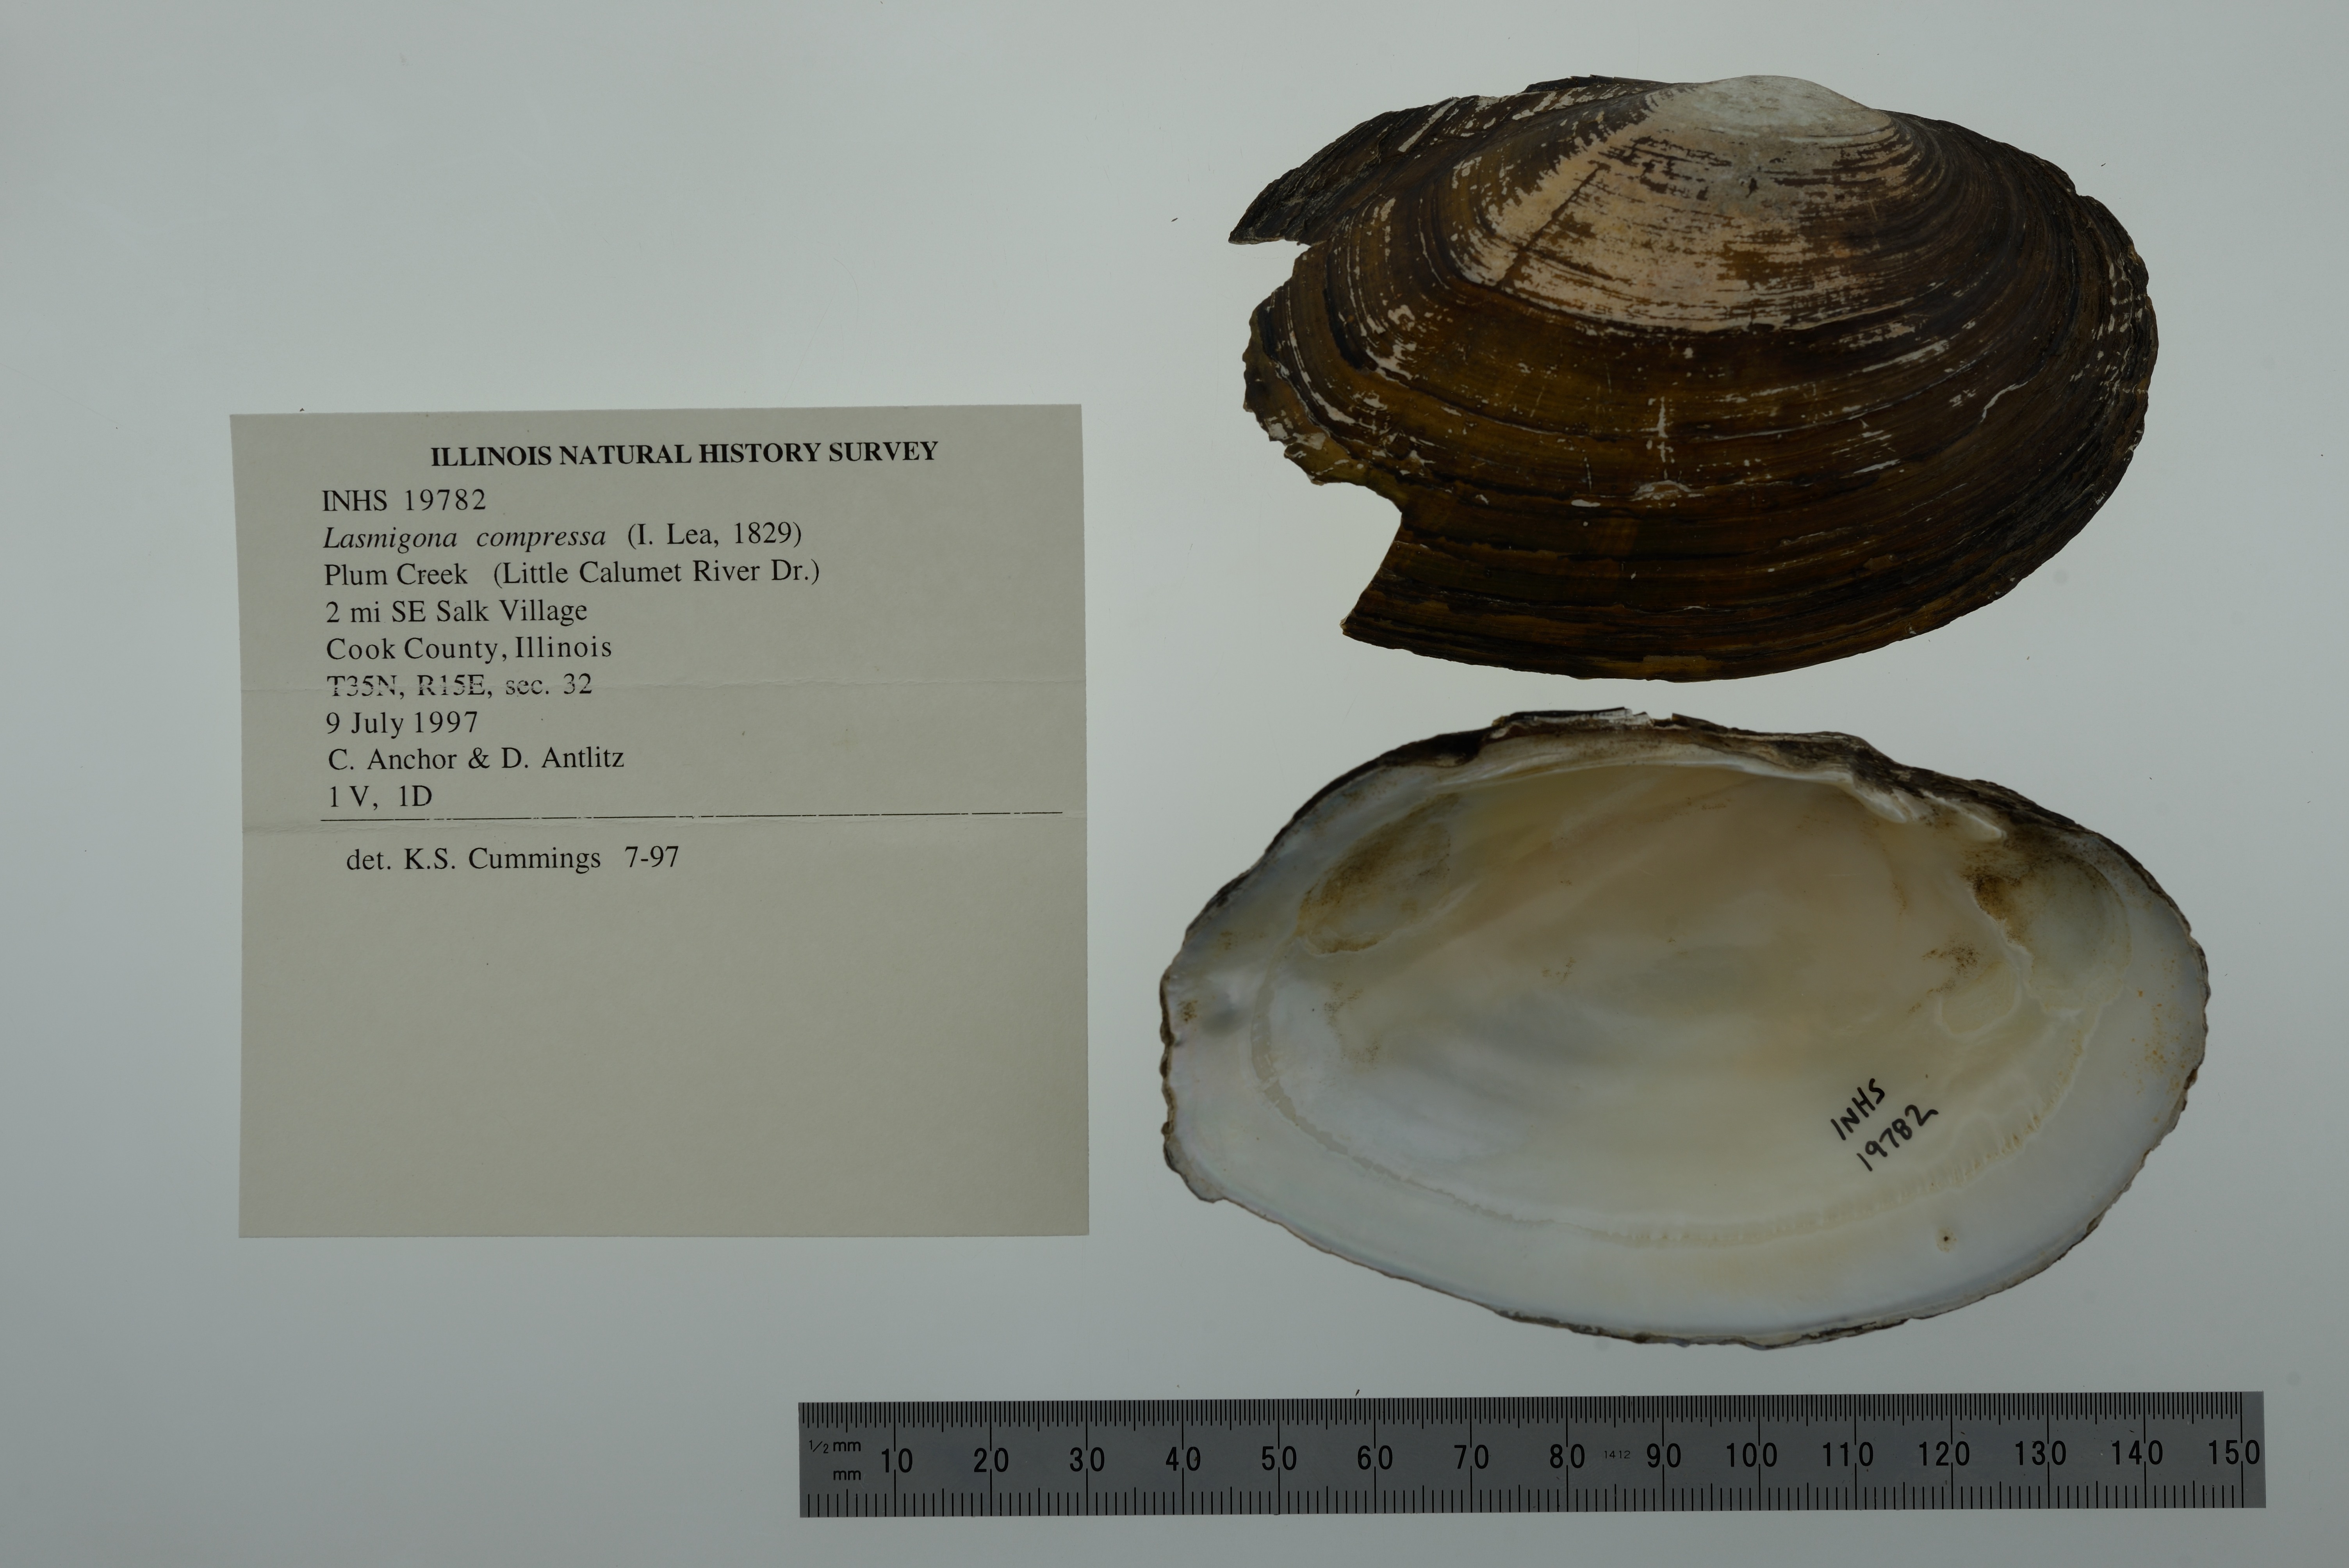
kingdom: Animalia
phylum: Mollusca
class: Bivalvia
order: Unionida
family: Unionidae
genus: Lasmigona
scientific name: Lasmigona compressa
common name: Creek heelsplitter
